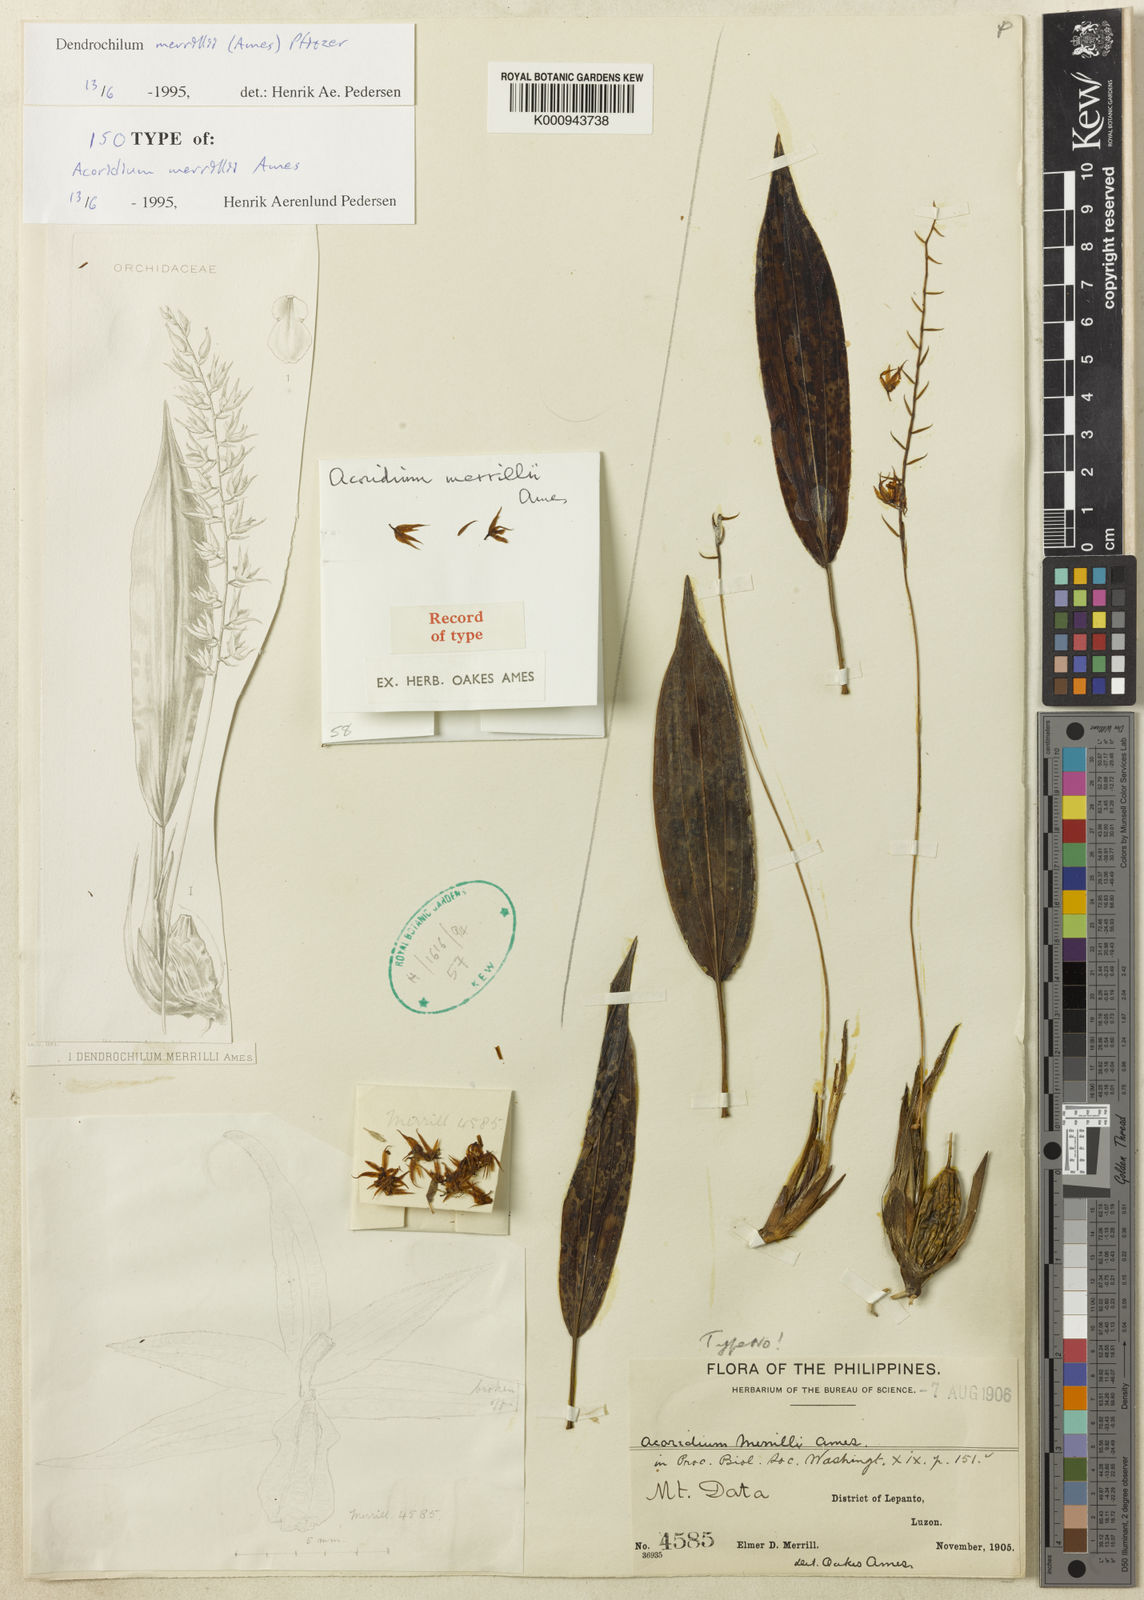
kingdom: Plantae
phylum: Tracheophyta
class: Liliopsida
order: Asparagales
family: Orchidaceae
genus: Coelogyne
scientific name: Coelogyne datensis
